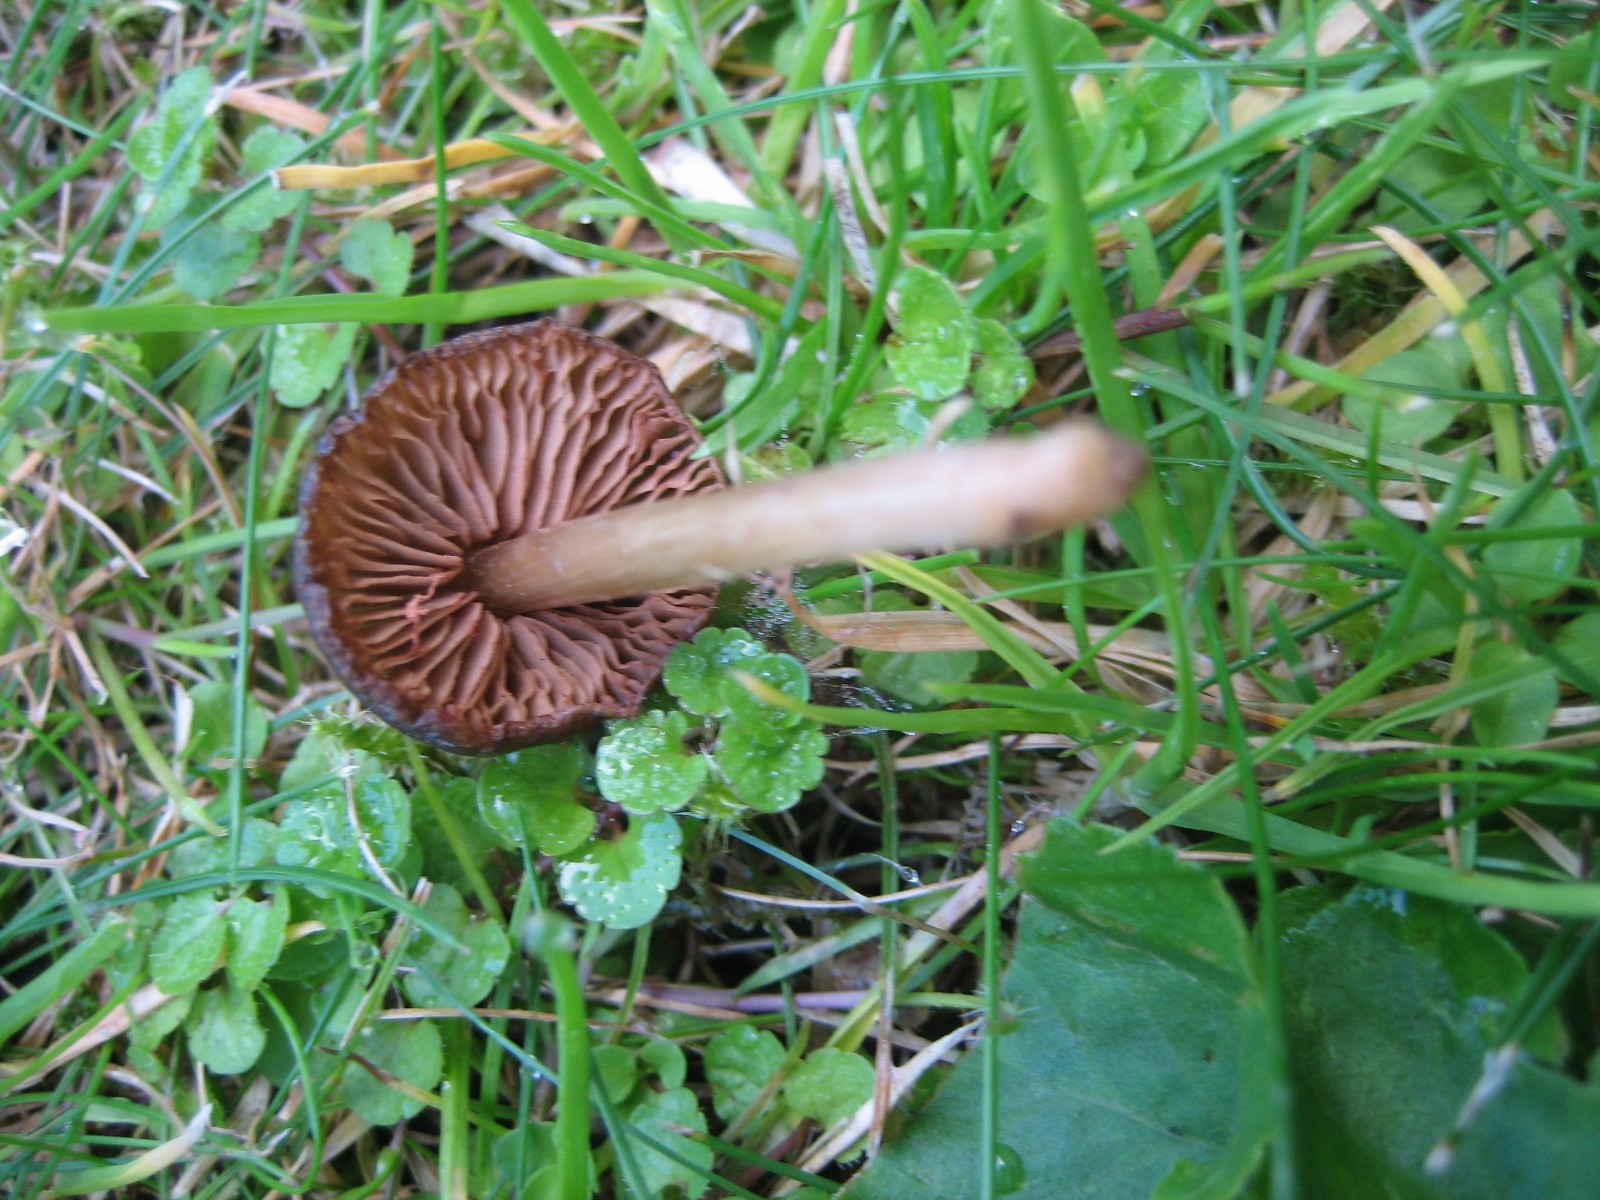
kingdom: Fungi
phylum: Basidiomycota
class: Agaricomycetes
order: Agaricales
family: Entolomataceae
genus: Entoloma
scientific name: Entoloma
